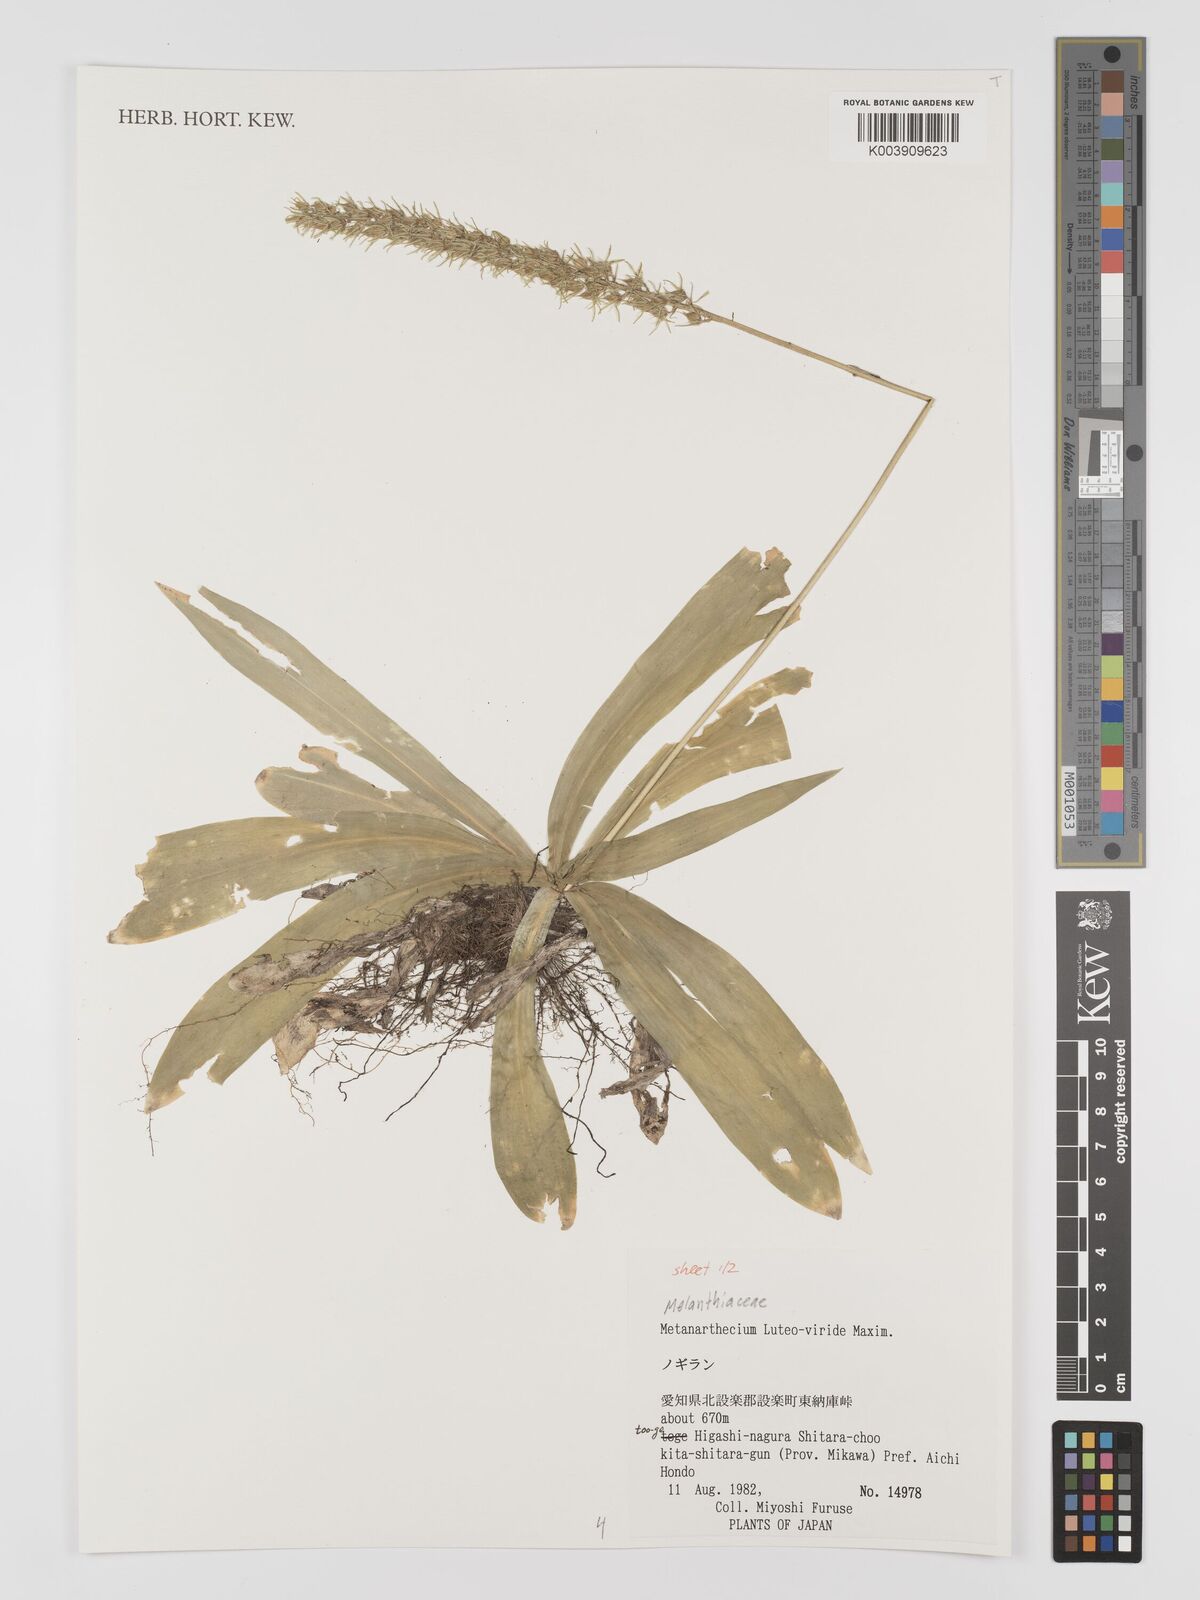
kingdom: Plantae
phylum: Tracheophyta
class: Liliopsida
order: Dioscoreales
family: Nartheciaceae
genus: Metanarthecium
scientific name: Metanarthecium luteoviride
